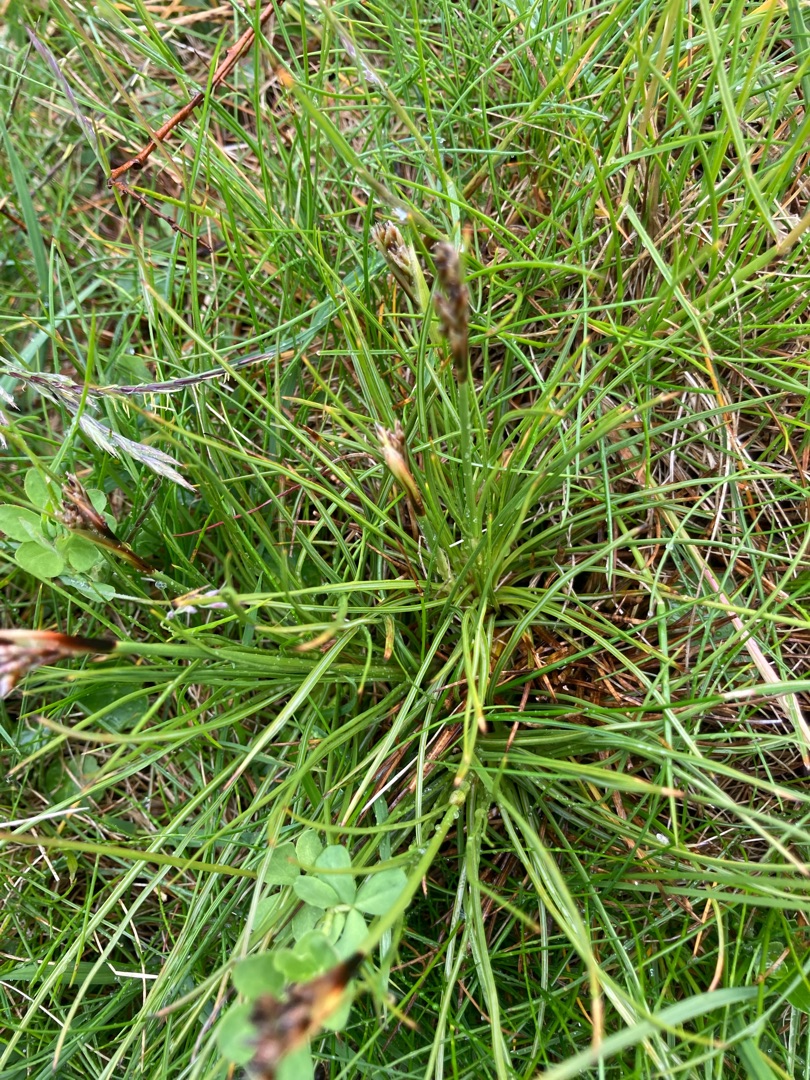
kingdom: Plantae
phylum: Tracheophyta
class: Liliopsida
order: Poales
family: Juncaceae
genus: Juncus
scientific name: Juncus squarrosus
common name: Børste-siv
